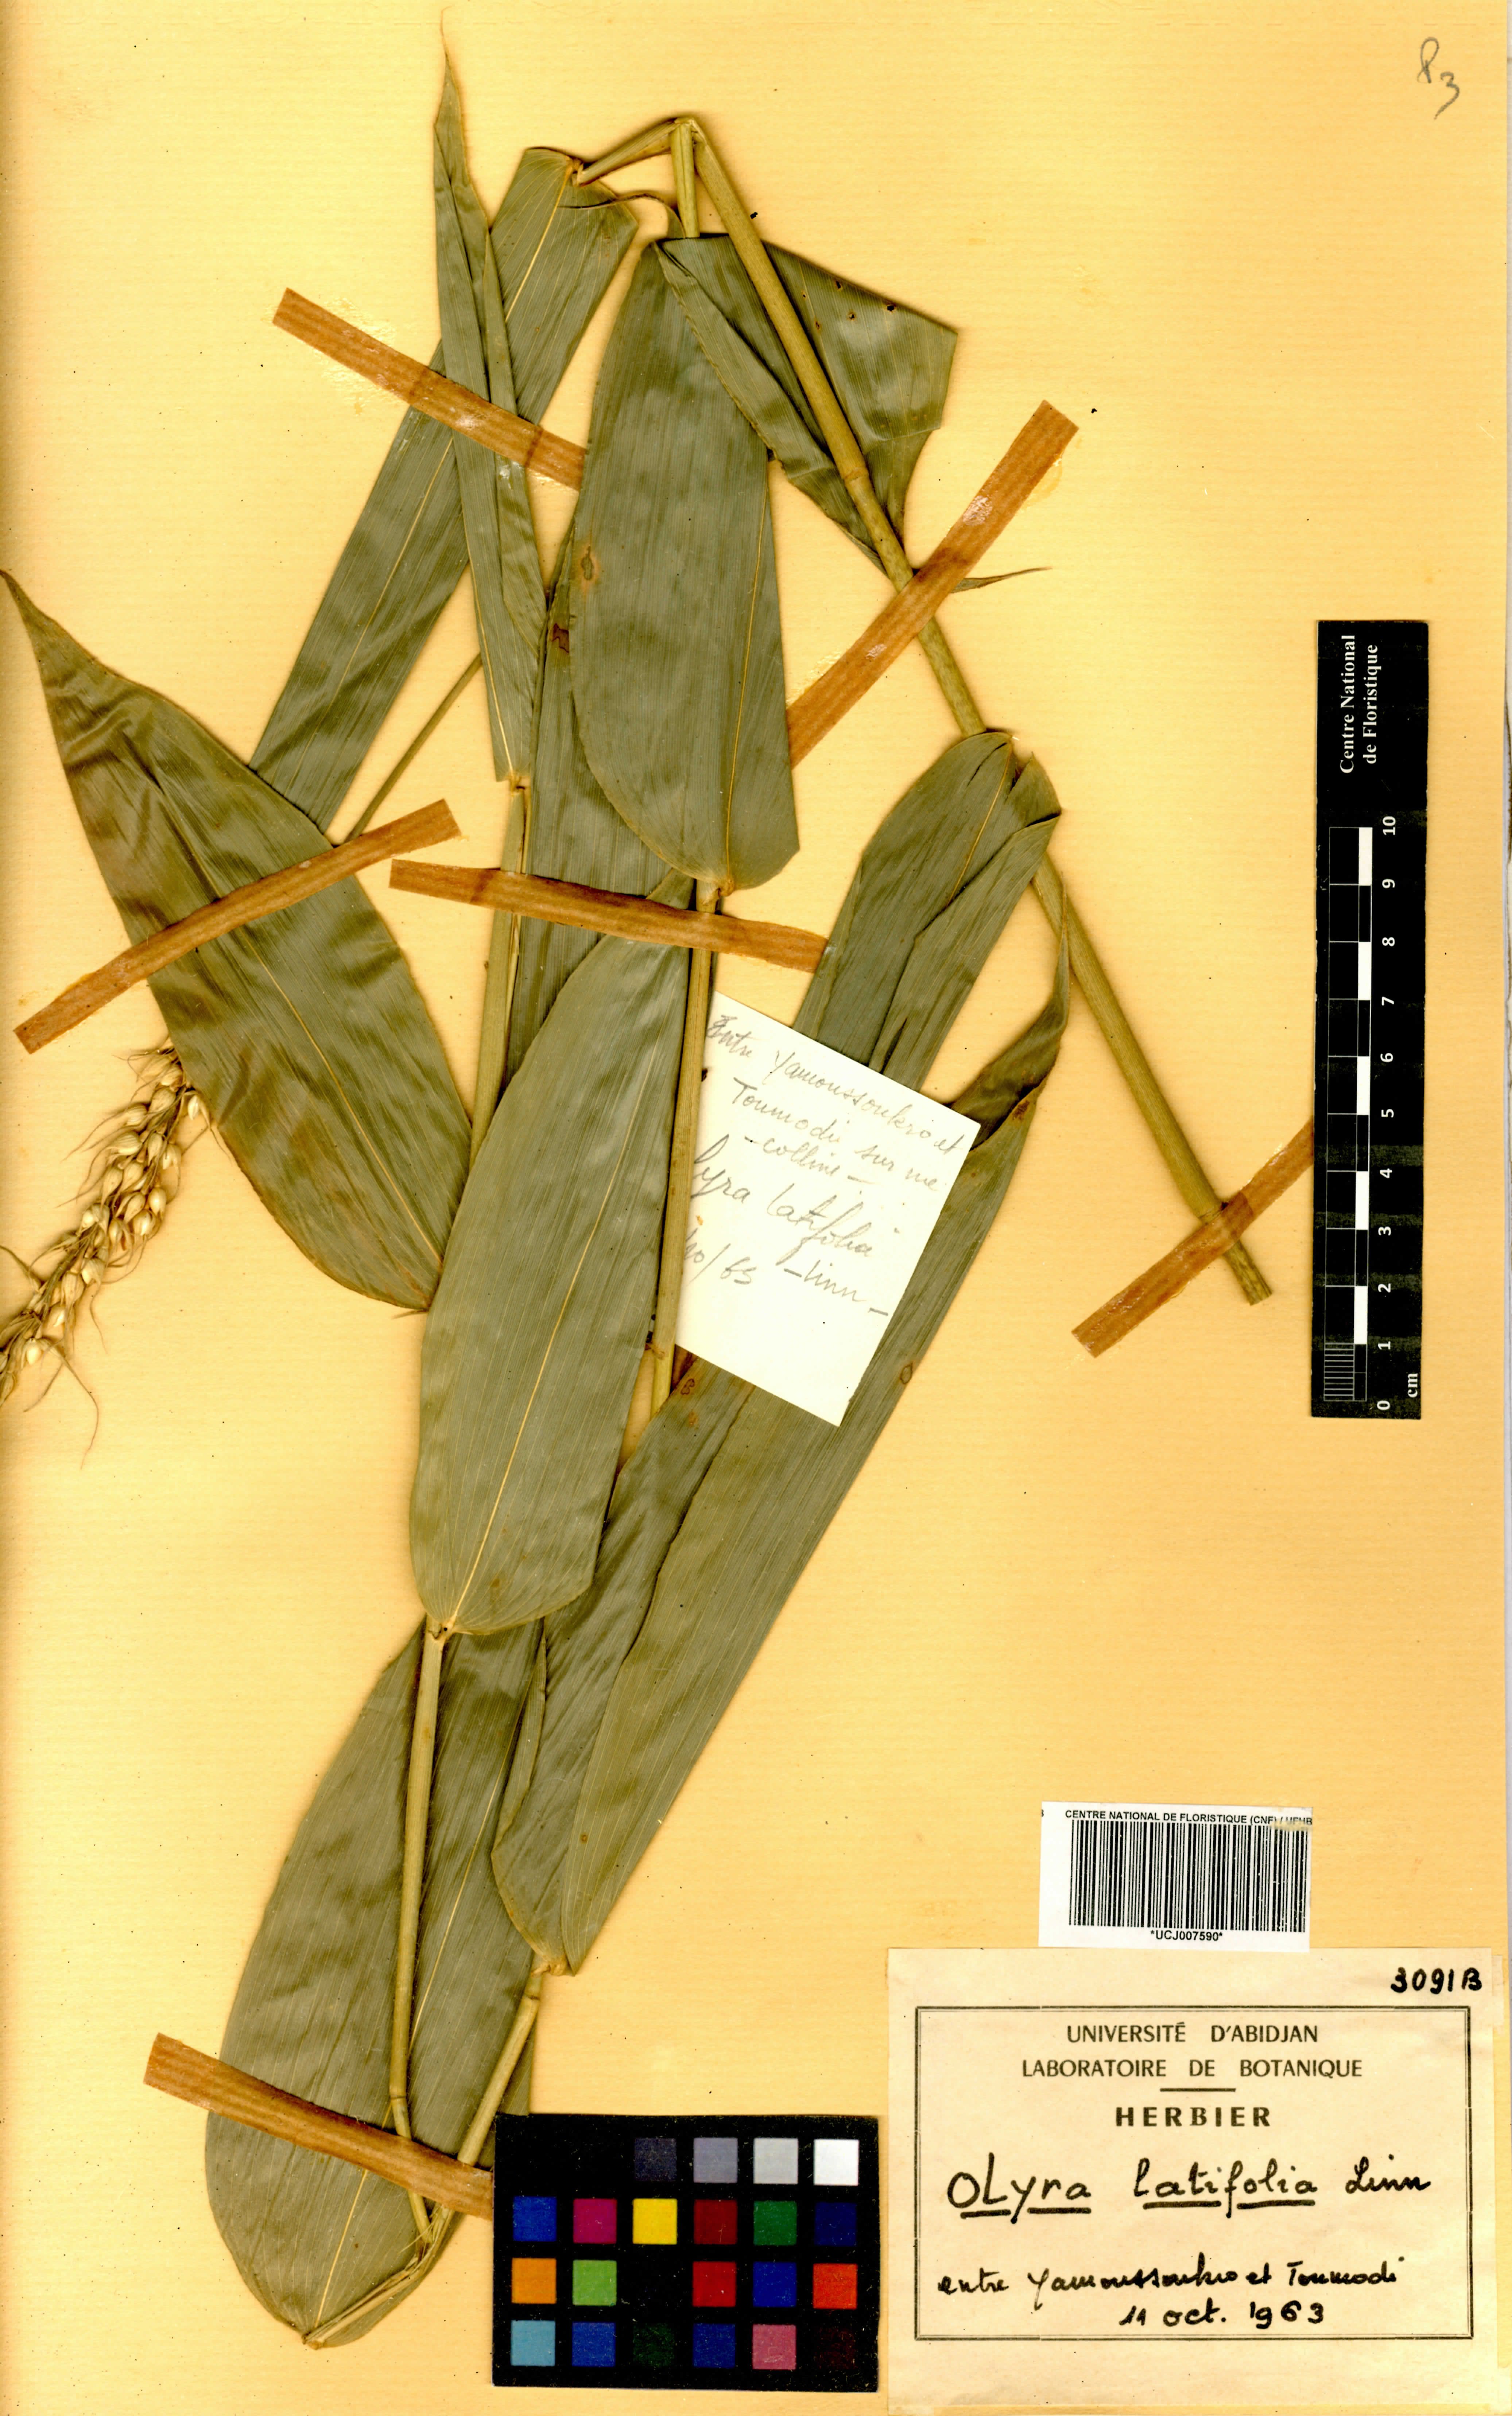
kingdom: Plantae
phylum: Tracheophyta
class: Liliopsida
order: Poales
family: Poaceae
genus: Olyra
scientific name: Olyra latifolia
